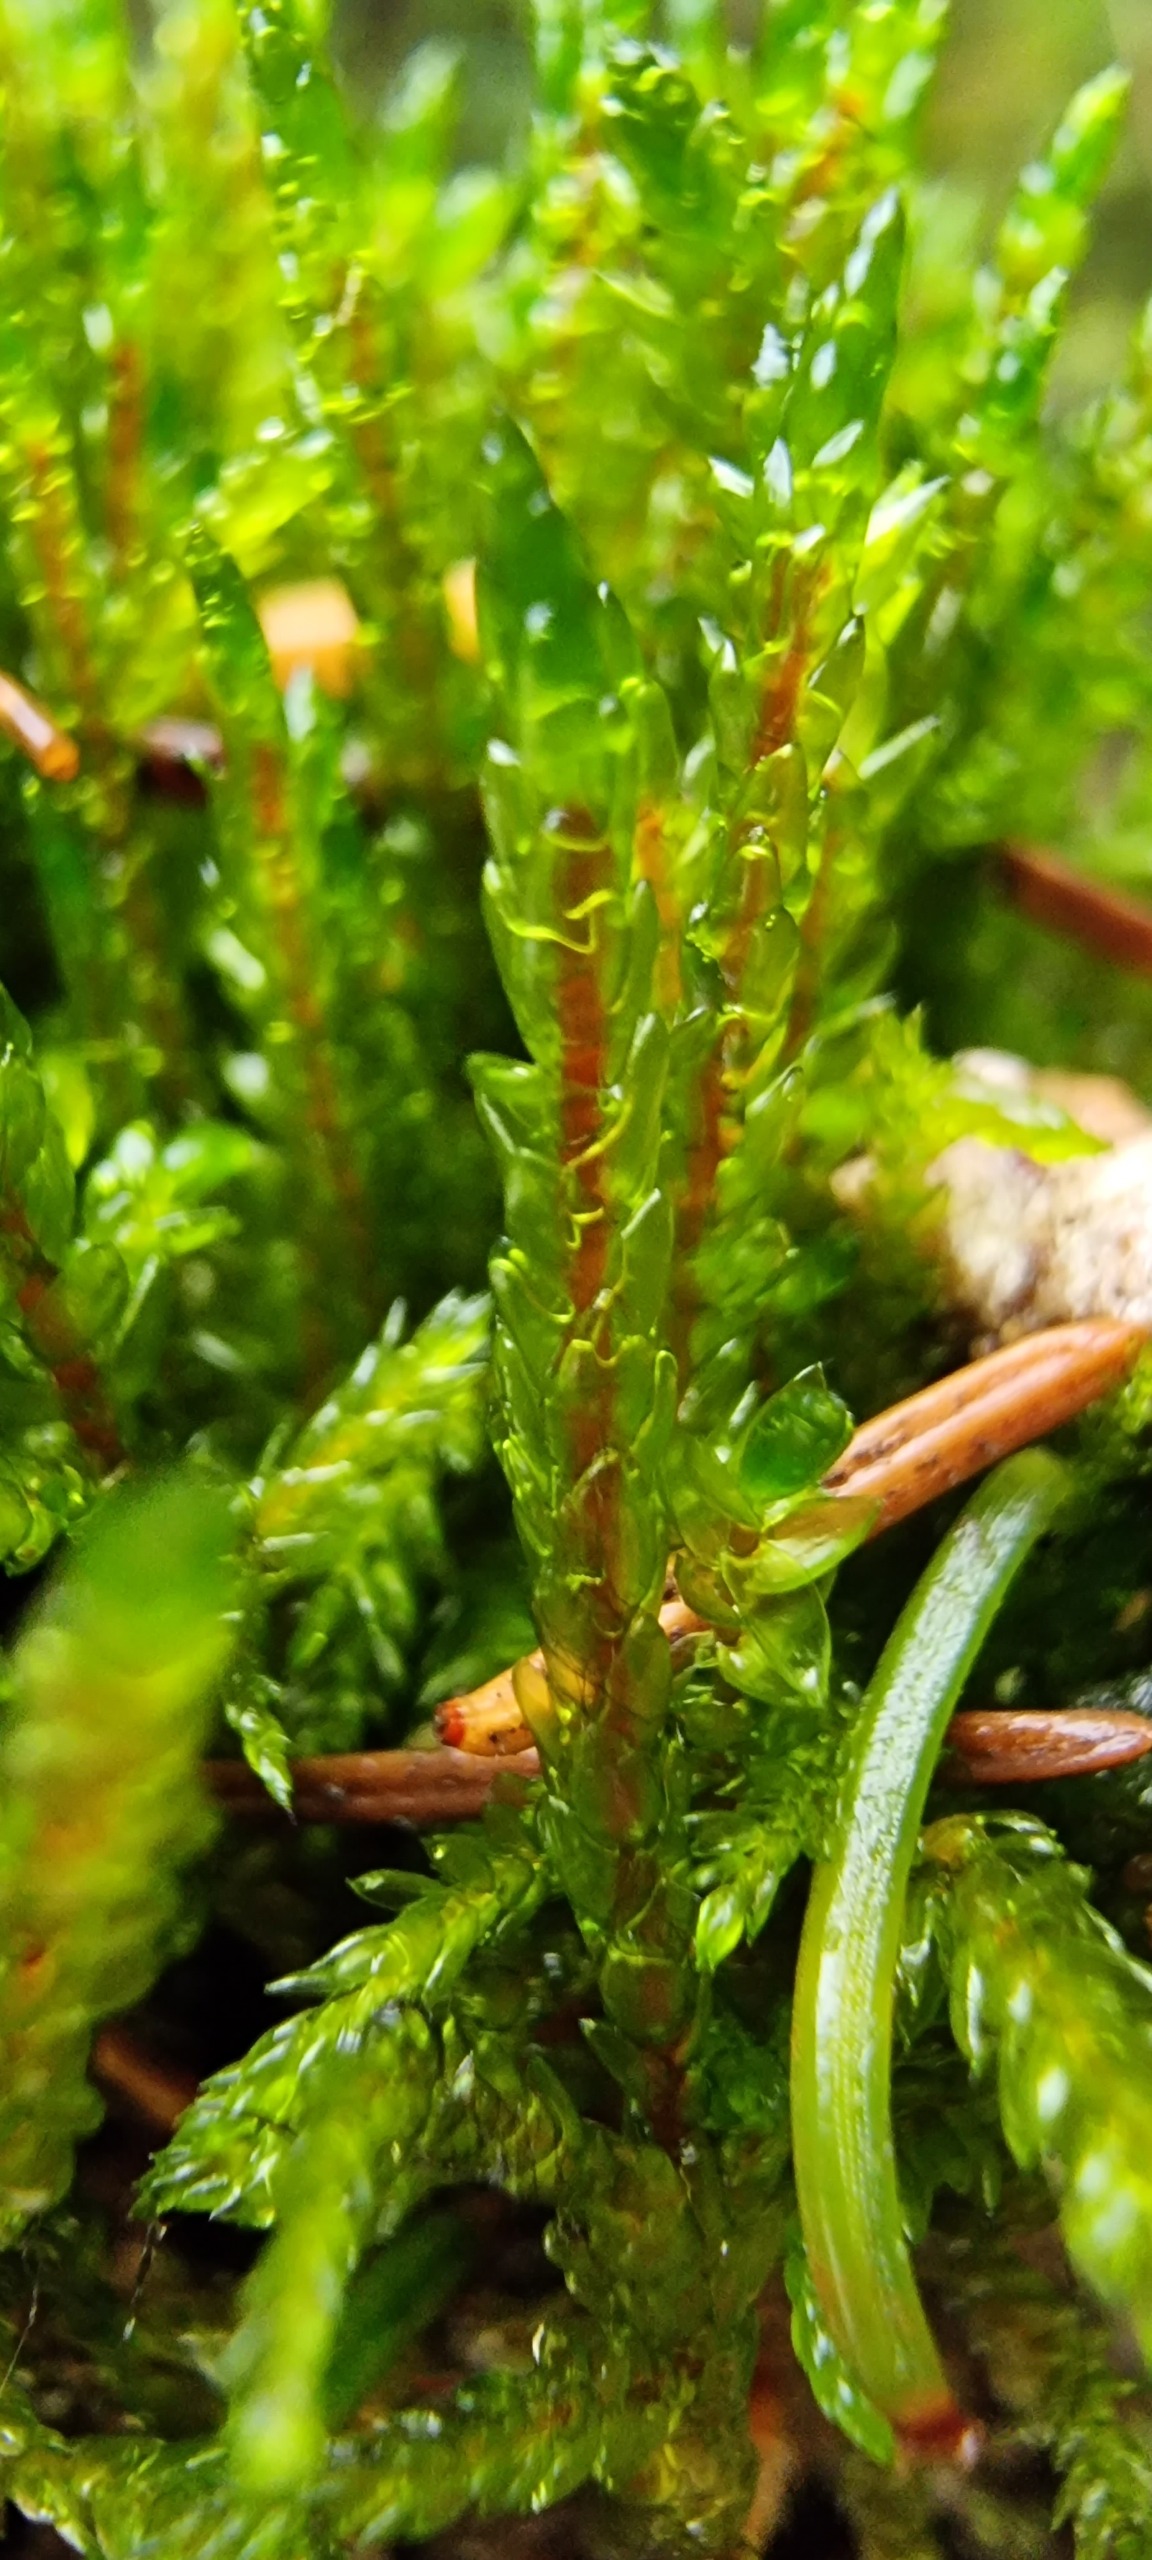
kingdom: Plantae
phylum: Bryophyta
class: Bryopsida
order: Hypnales
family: Hylocomiaceae
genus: Pleurozium
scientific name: Pleurozium schreberi
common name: Trind fyrremos
